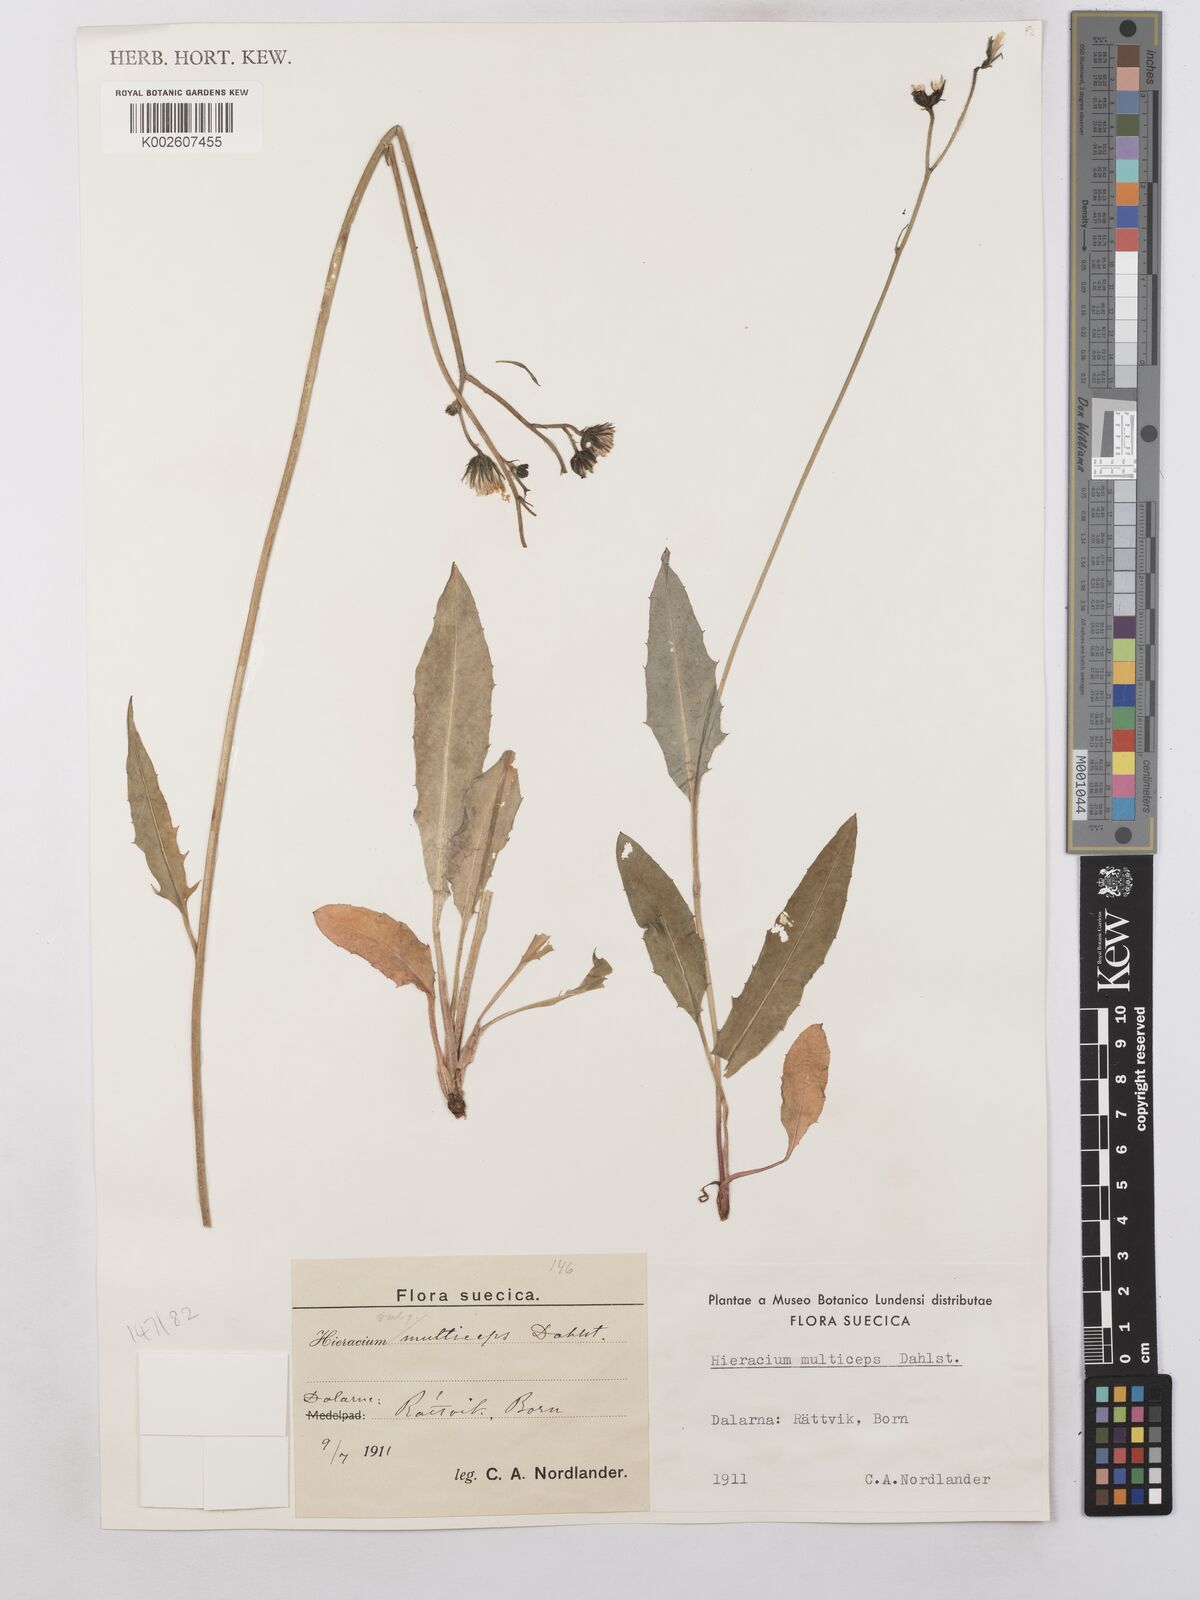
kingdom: Plantae
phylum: Tracheophyta
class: Magnoliopsida
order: Asterales
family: Asteraceae
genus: Hieracium
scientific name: Hieracium caesium
